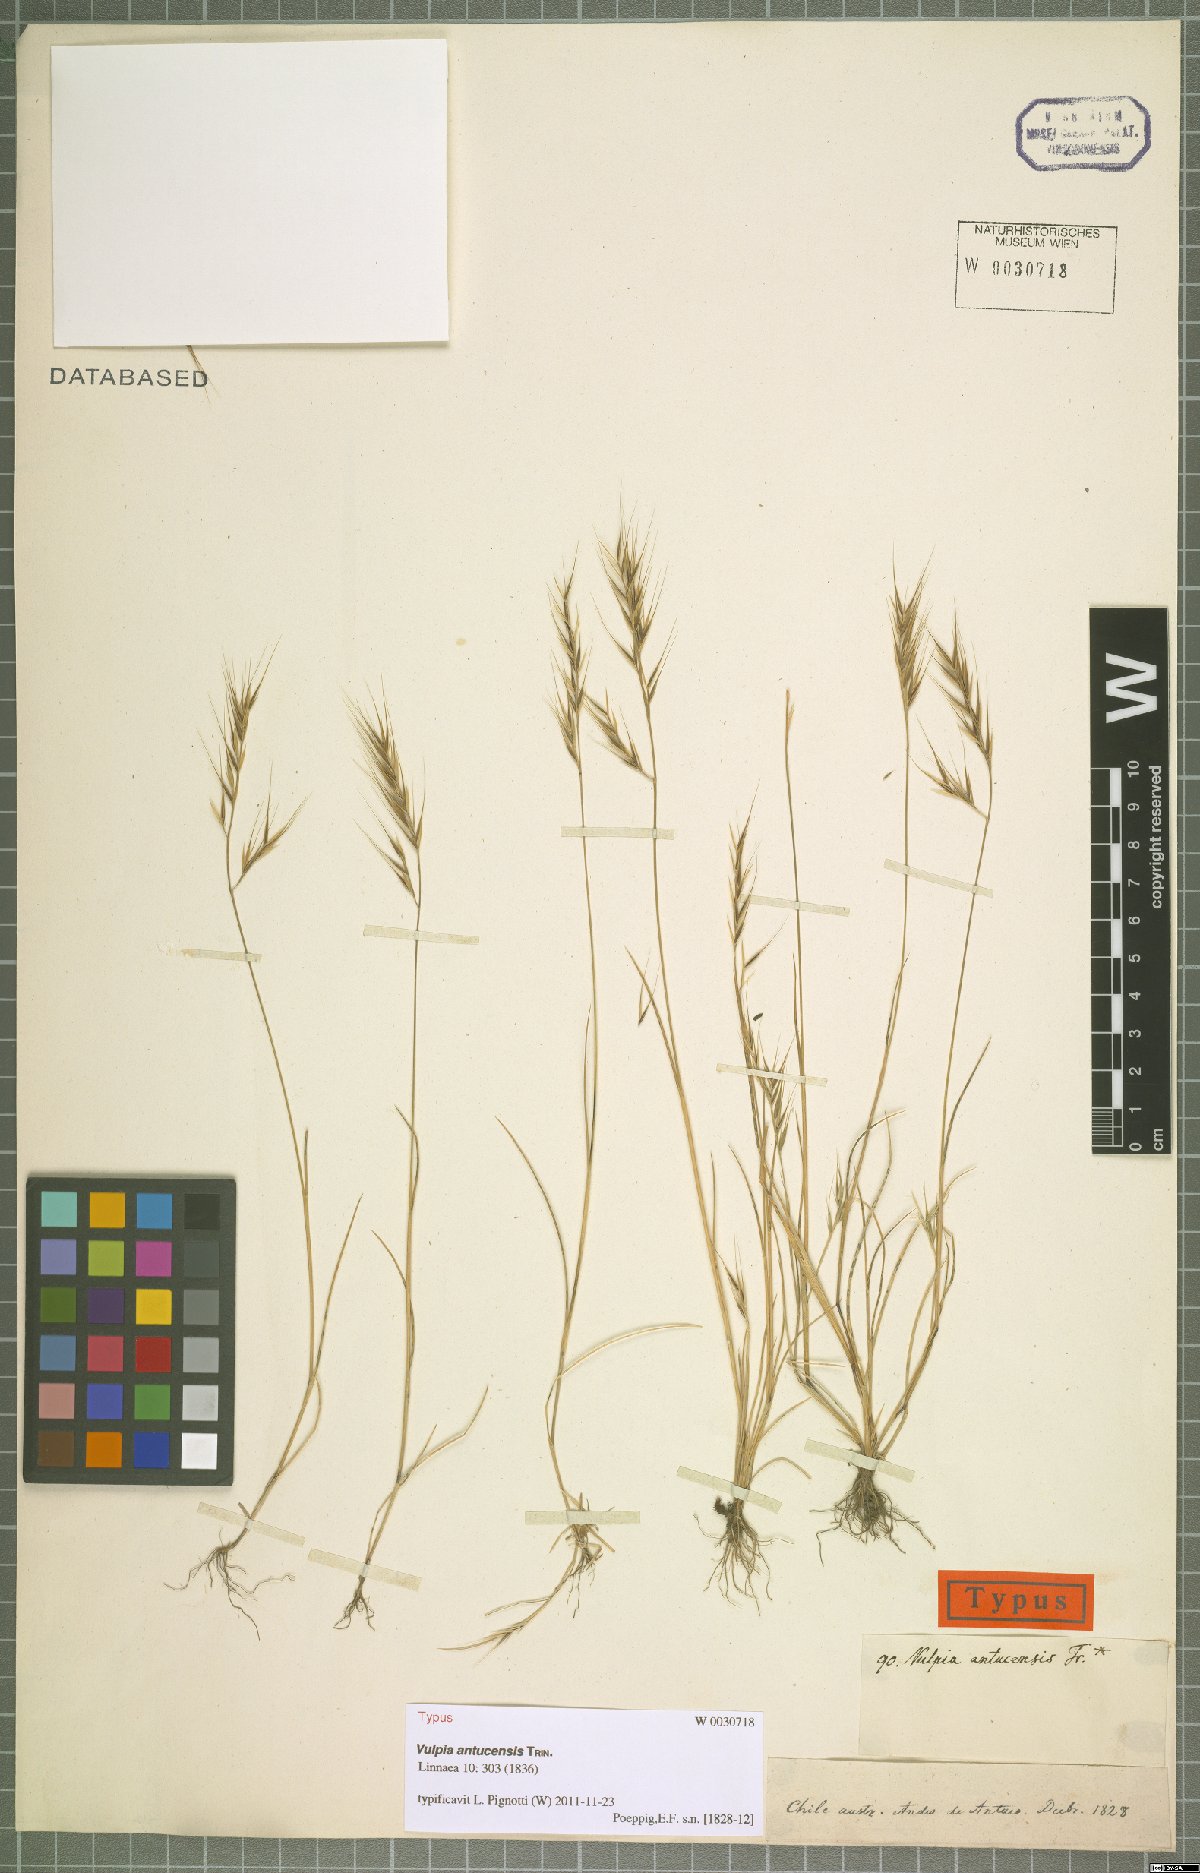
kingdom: Plantae
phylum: Tracheophyta
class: Liliopsida
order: Poales
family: Poaceae
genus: Festuca
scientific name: Festuca antucensis
